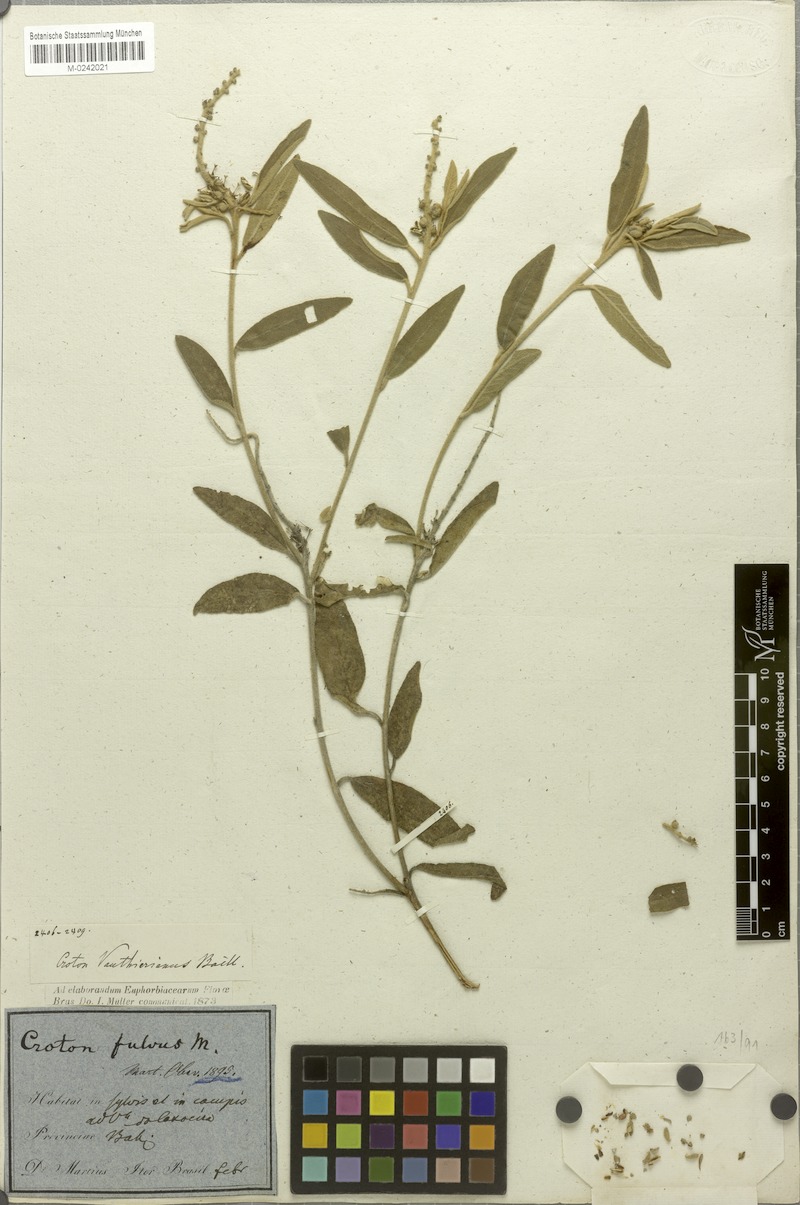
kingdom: Plantae
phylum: Tracheophyta
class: Magnoliopsida
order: Malpighiales
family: Euphorbiaceae
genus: Croton
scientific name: Croton vauthierianus
